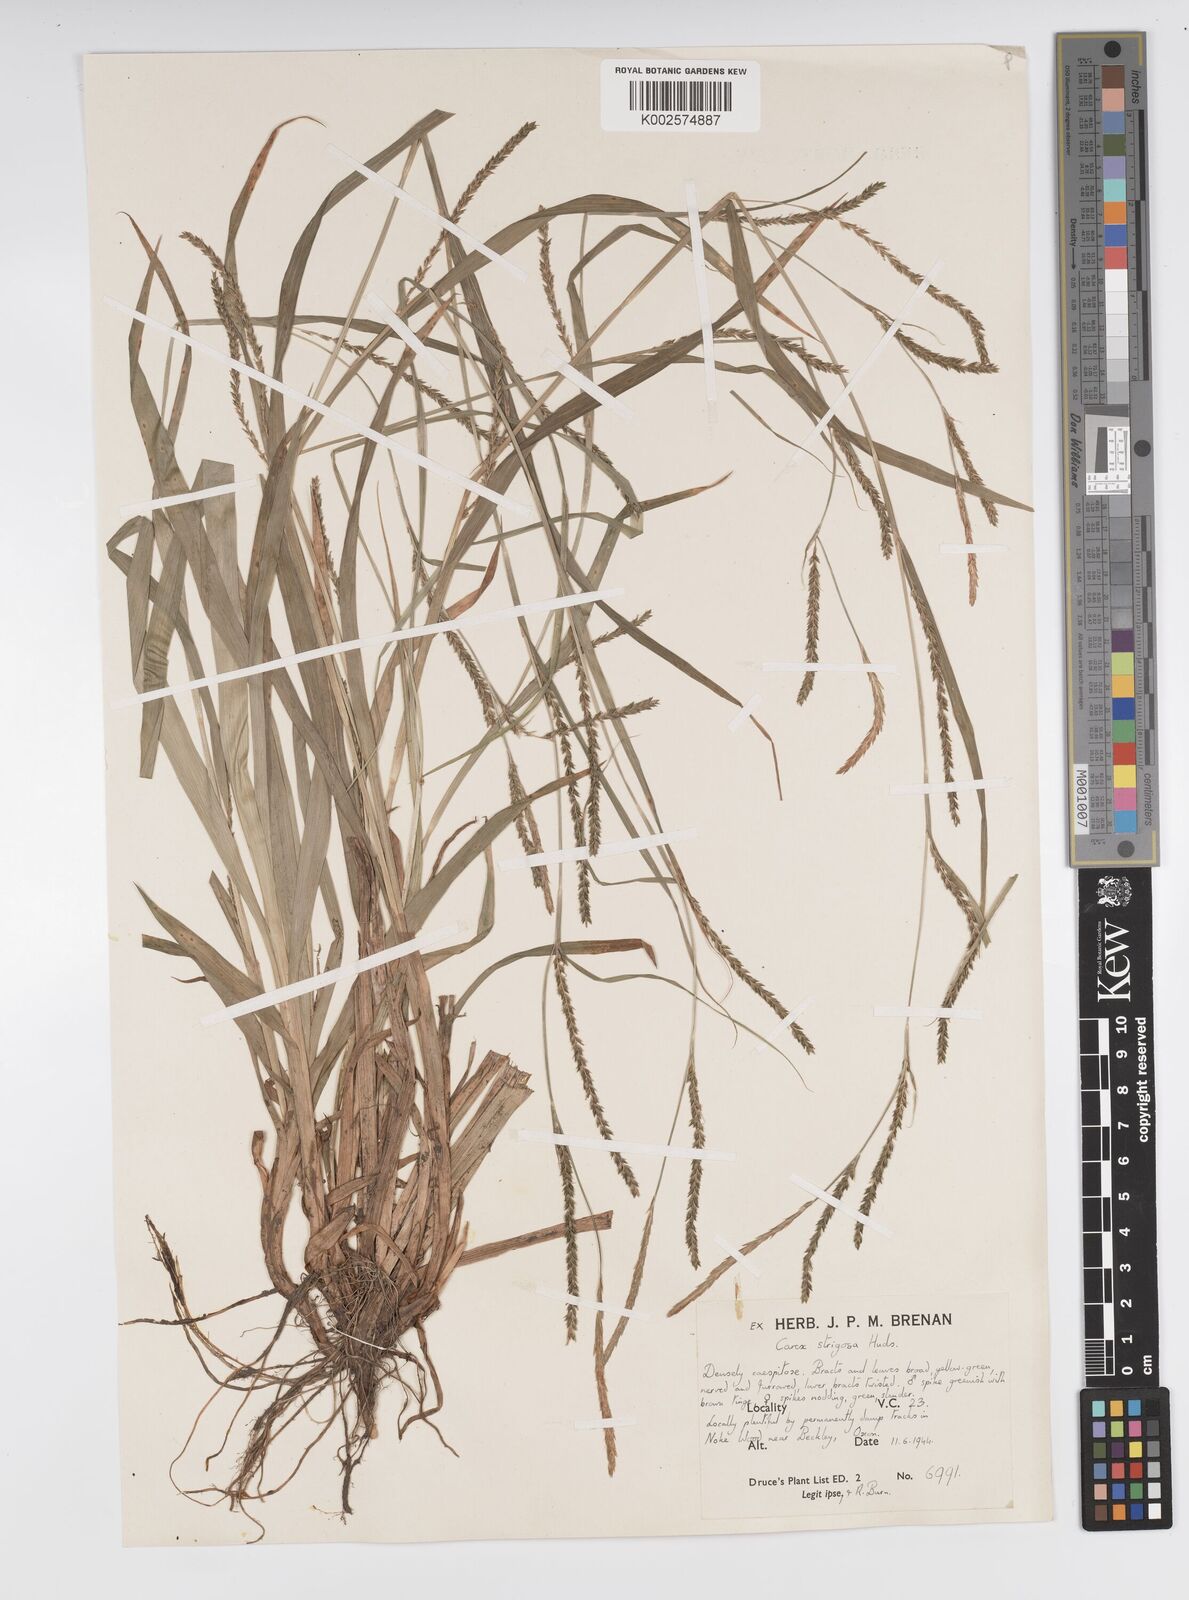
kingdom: Plantae
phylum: Tracheophyta
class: Liliopsida
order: Poales
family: Cyperaceae
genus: Carex
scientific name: Carex strigosa
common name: Thin-spiked wood-sedge
